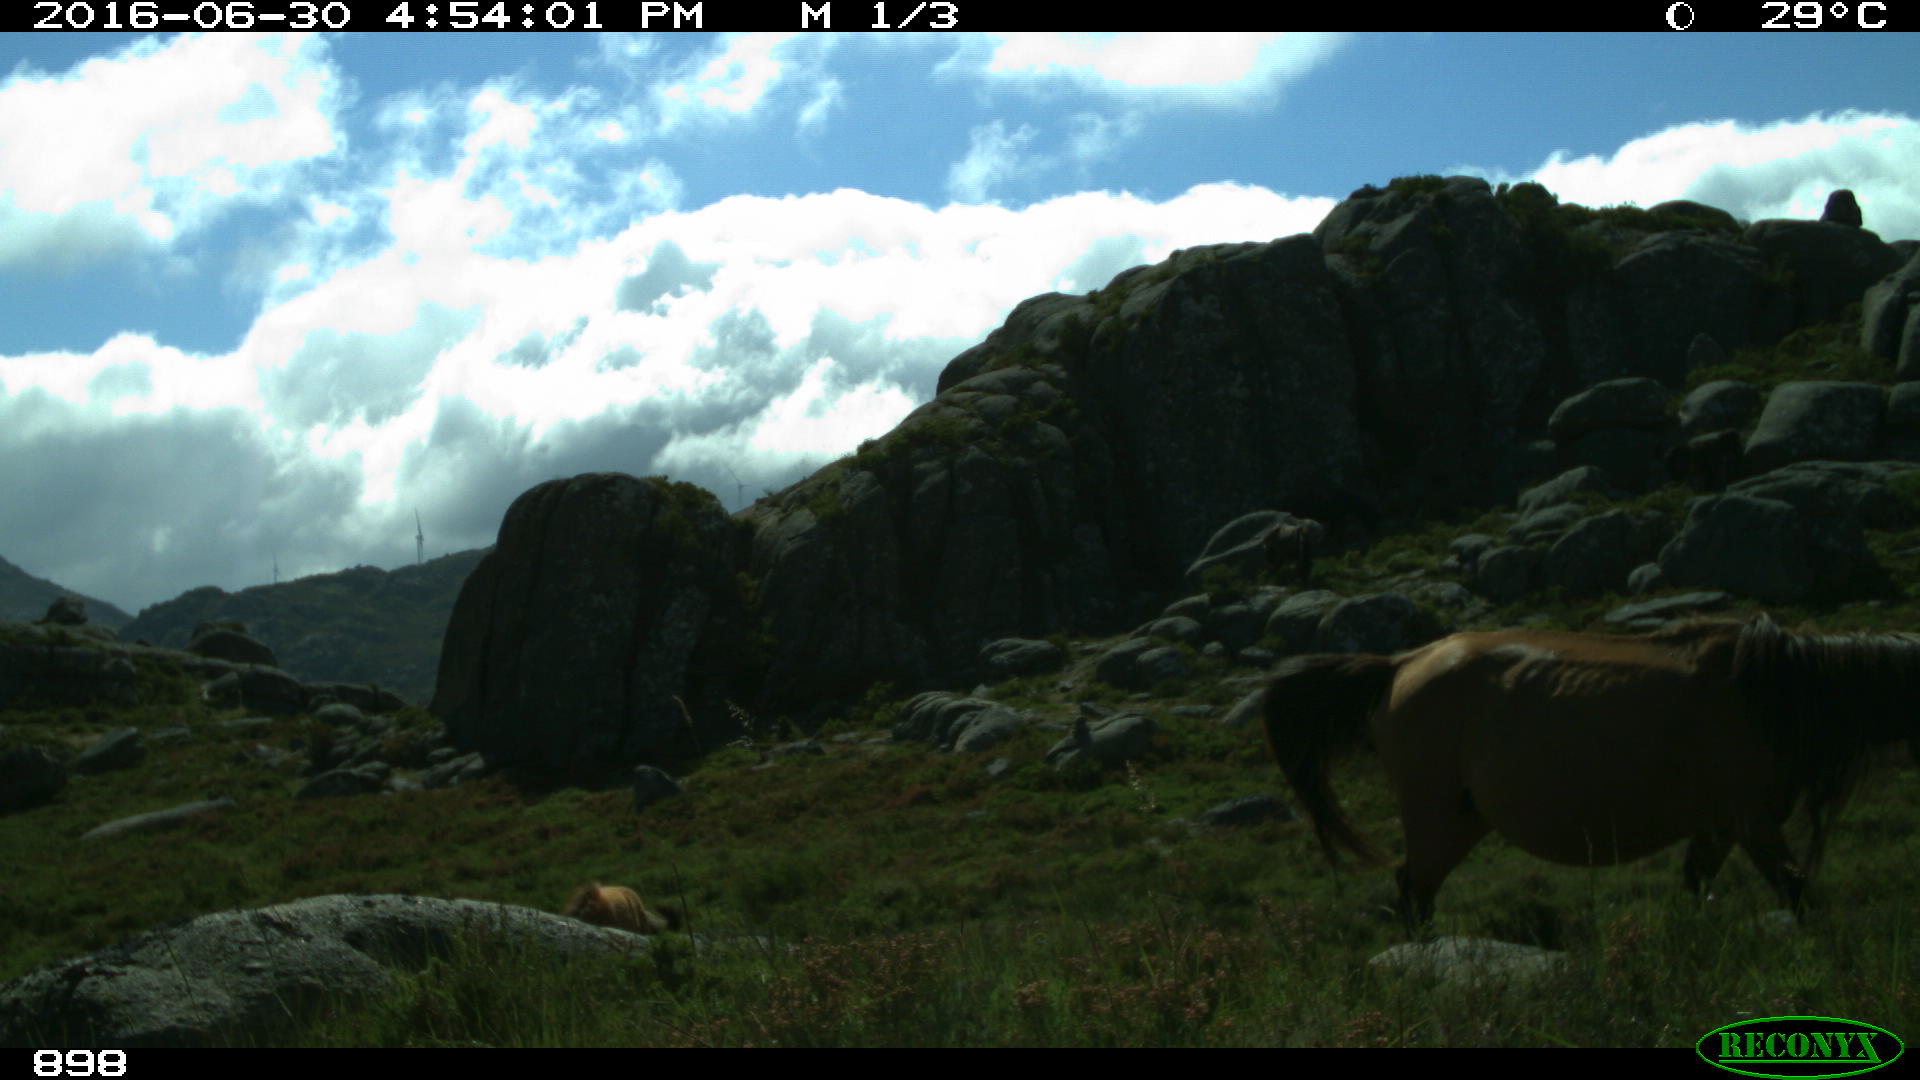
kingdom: Animalia
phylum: Chordata
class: Mammalia
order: Perissodactyla
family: Equidae
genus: Equus
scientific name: Equus caballus
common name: Horse
